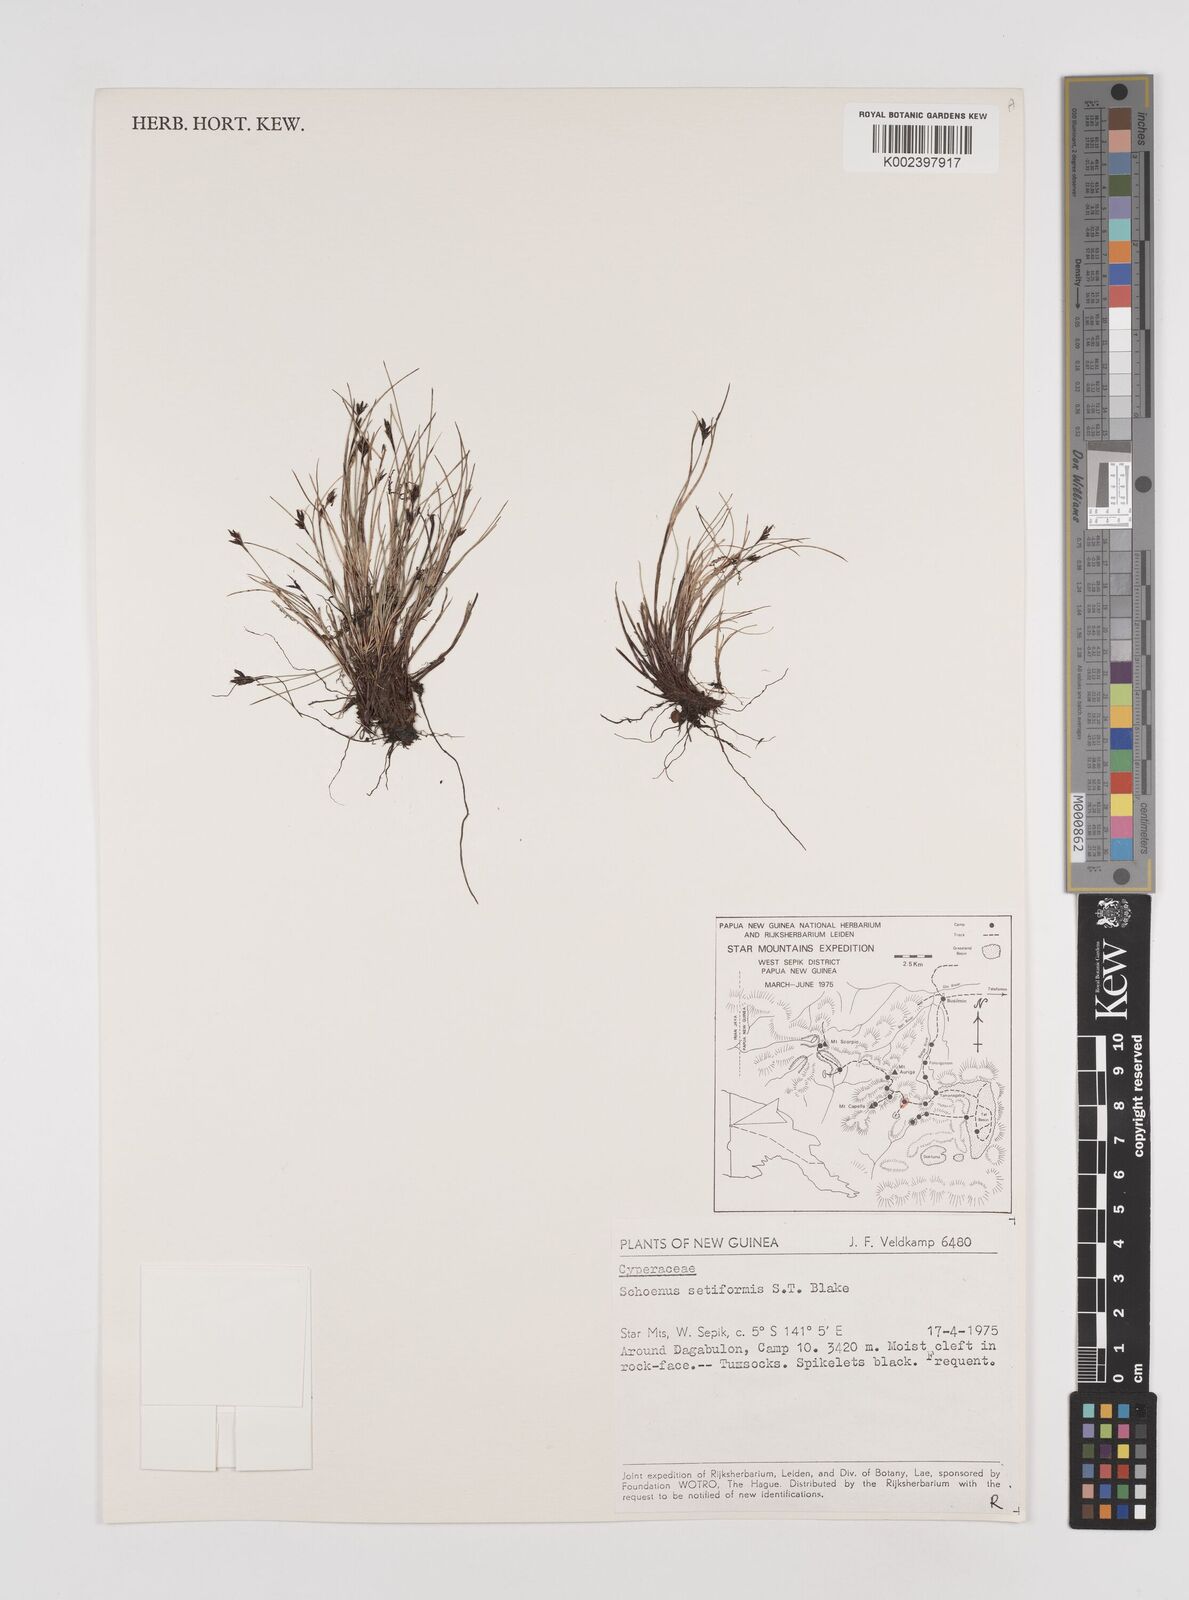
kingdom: Plantae
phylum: Tracheophyta
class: Liliopsida
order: Poales
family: Cyperaceae
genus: Schoenus
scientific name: Schoenus setiformis
